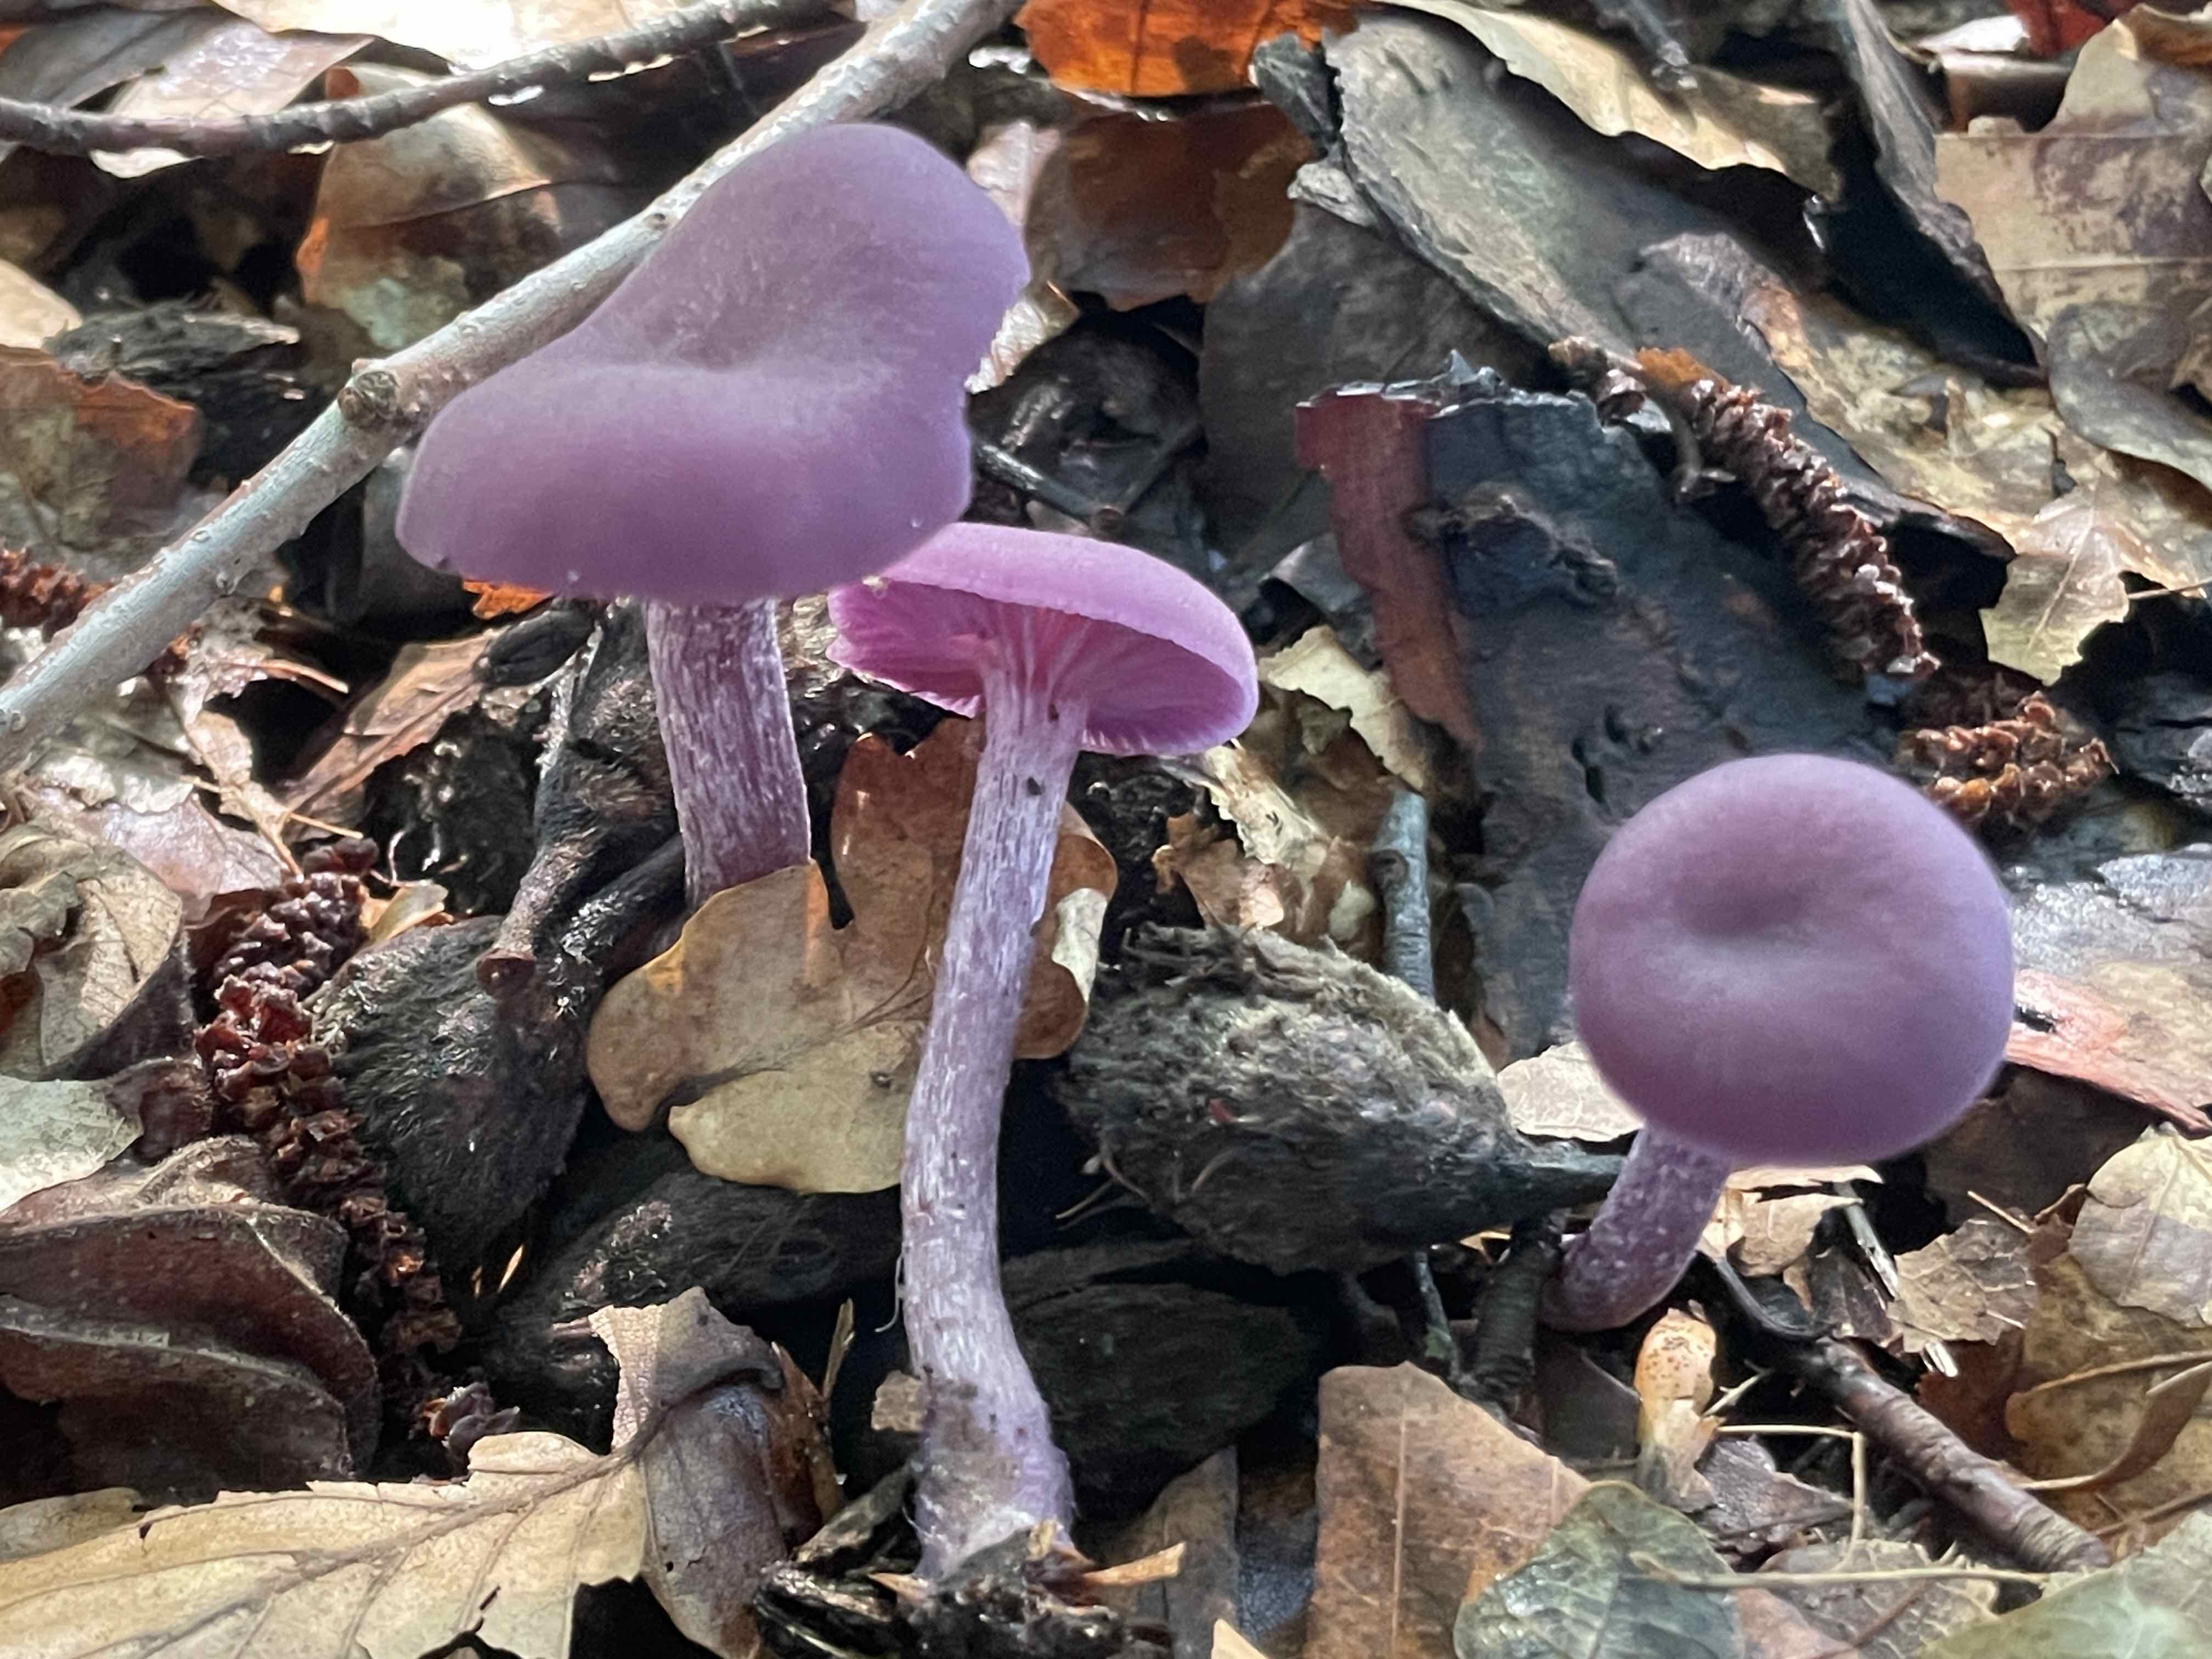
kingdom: Fungi
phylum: Basidiomycota
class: Agaricomycetes
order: Agaricales
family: Hydnangiaceae
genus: Laccaria
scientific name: Laccaria amethystina
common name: violet ametysthat
